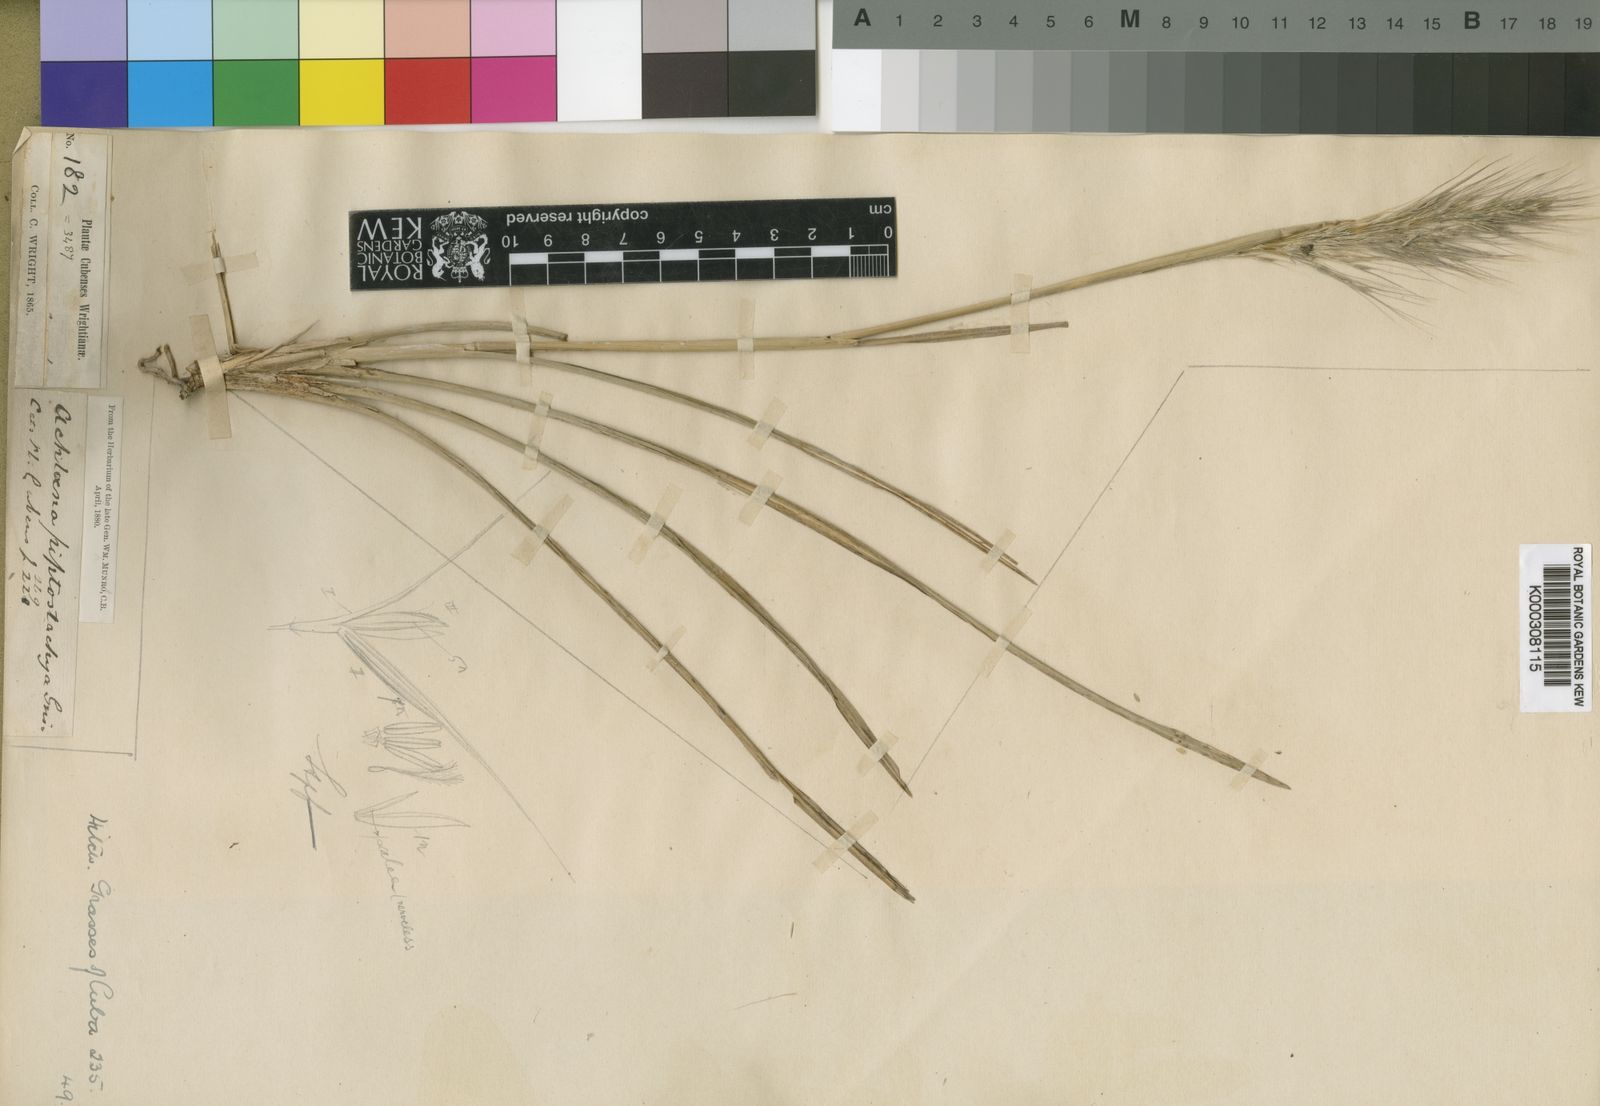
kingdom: Plantae
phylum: Tracheophyta
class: Liliopsida
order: Poales
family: Poaceae
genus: Arthropogon
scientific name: Arthropogon piptostachyus
